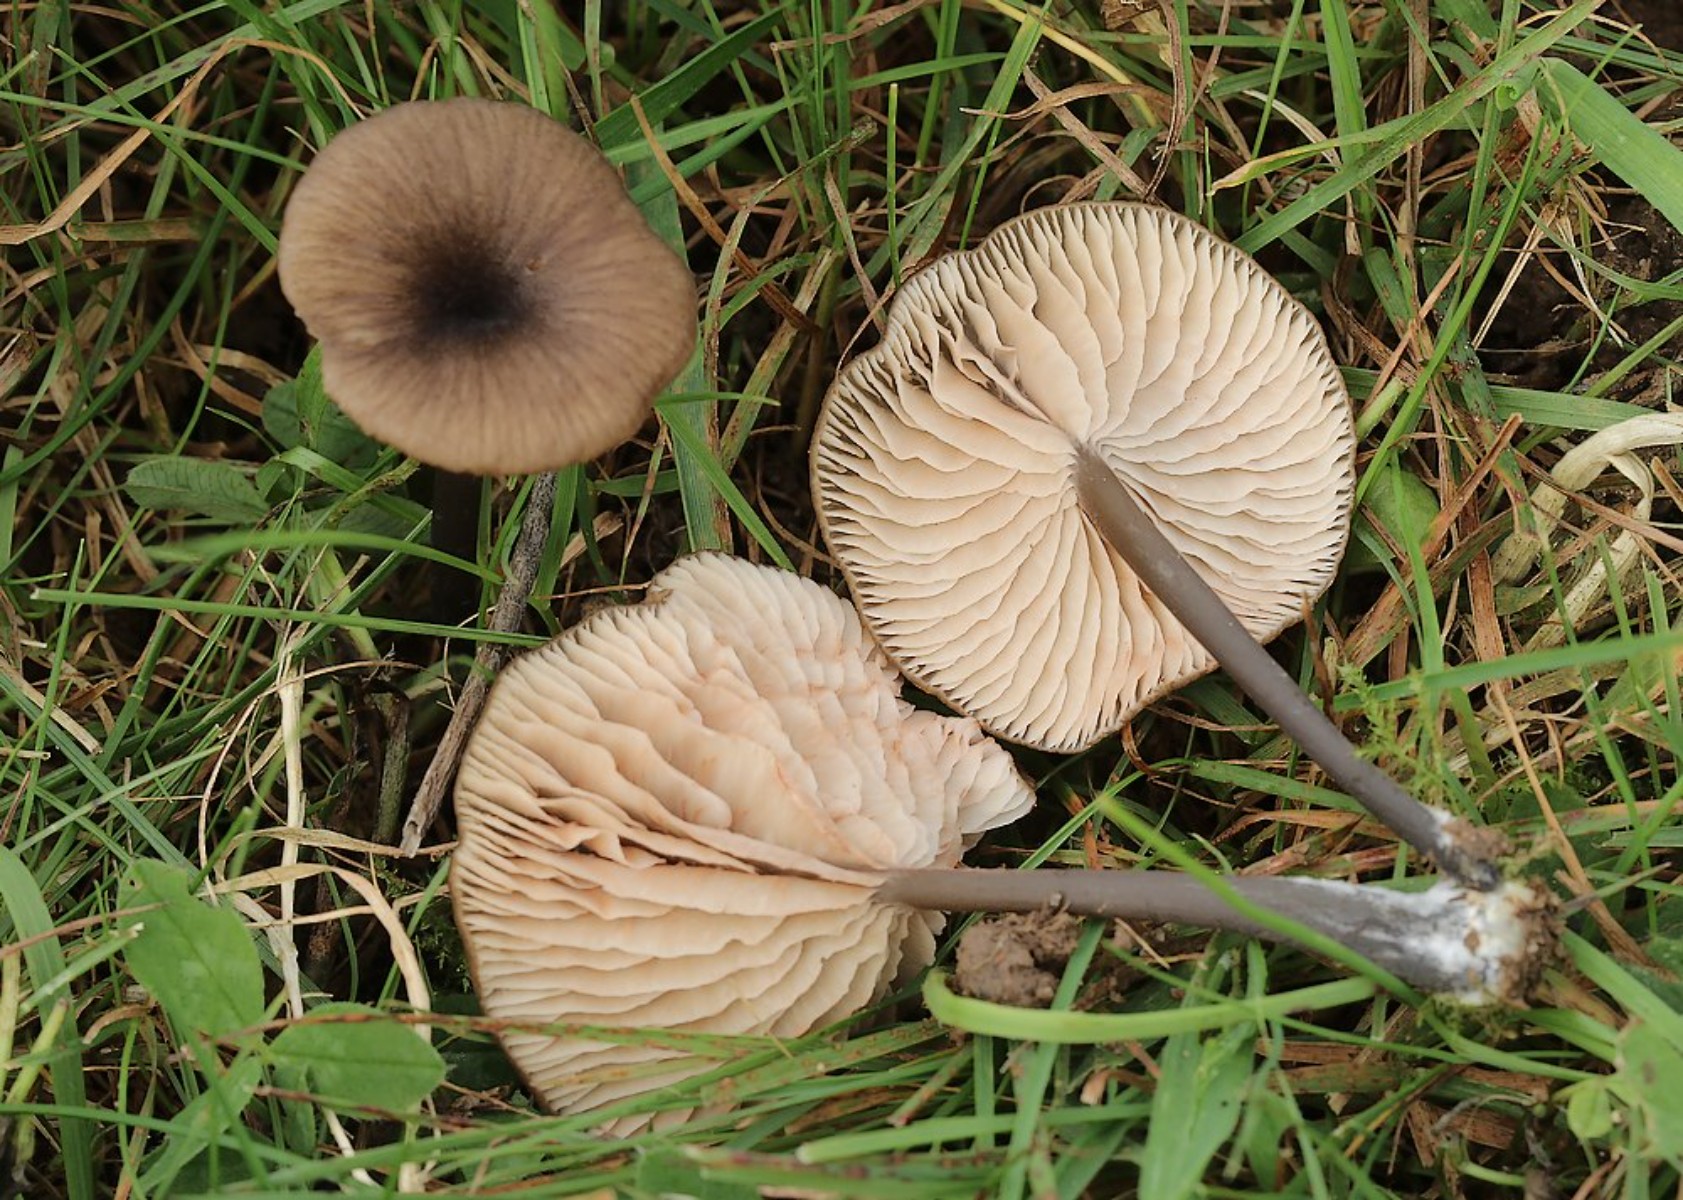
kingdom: Fungi
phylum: Basidiomycota
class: Agaricomycetes
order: Agaricales
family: Entolomataceae
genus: Entoloma
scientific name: Entoloma allospermum
